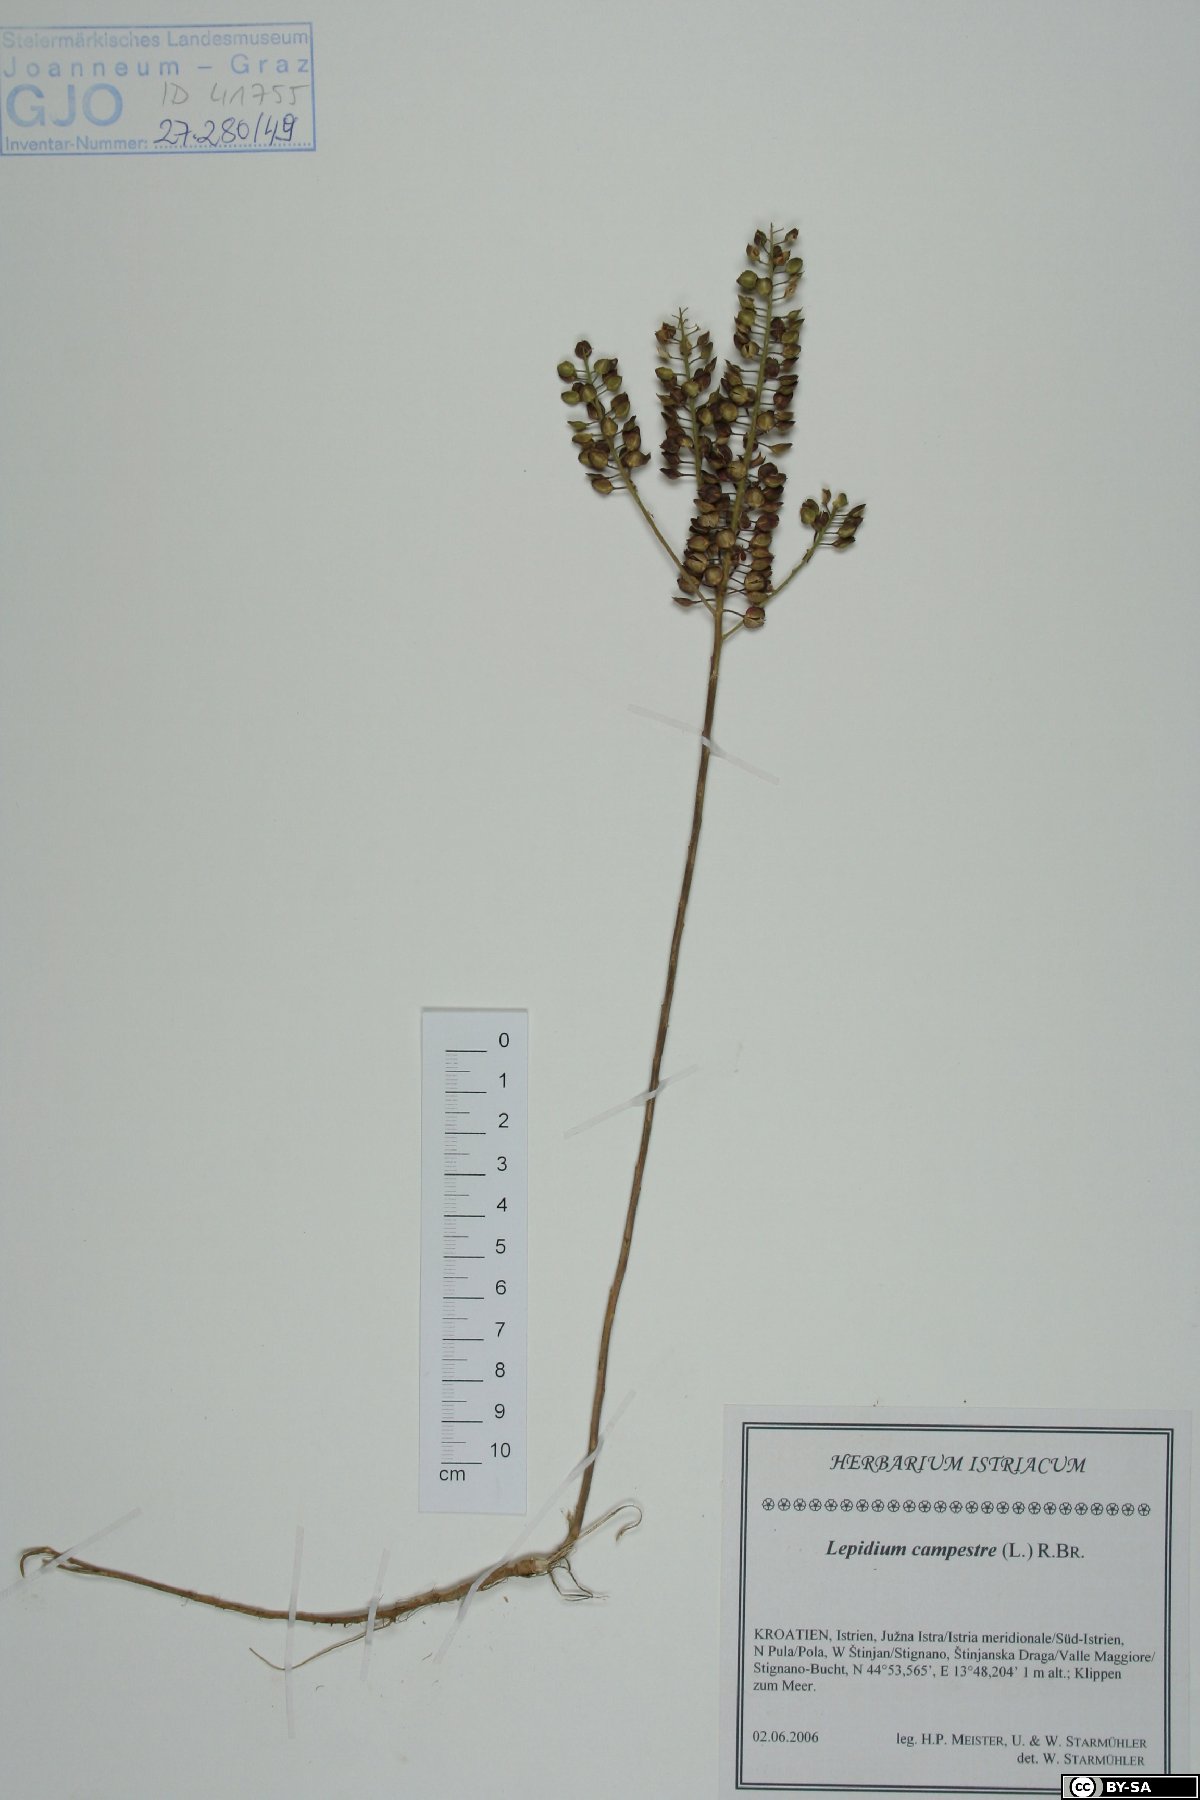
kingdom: Plantae
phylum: Tracheophyta
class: Magnoliopsida
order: Brassicales
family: Brassicaceae
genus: Lepidium
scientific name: Lepidium campestre
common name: Field pepperwort
